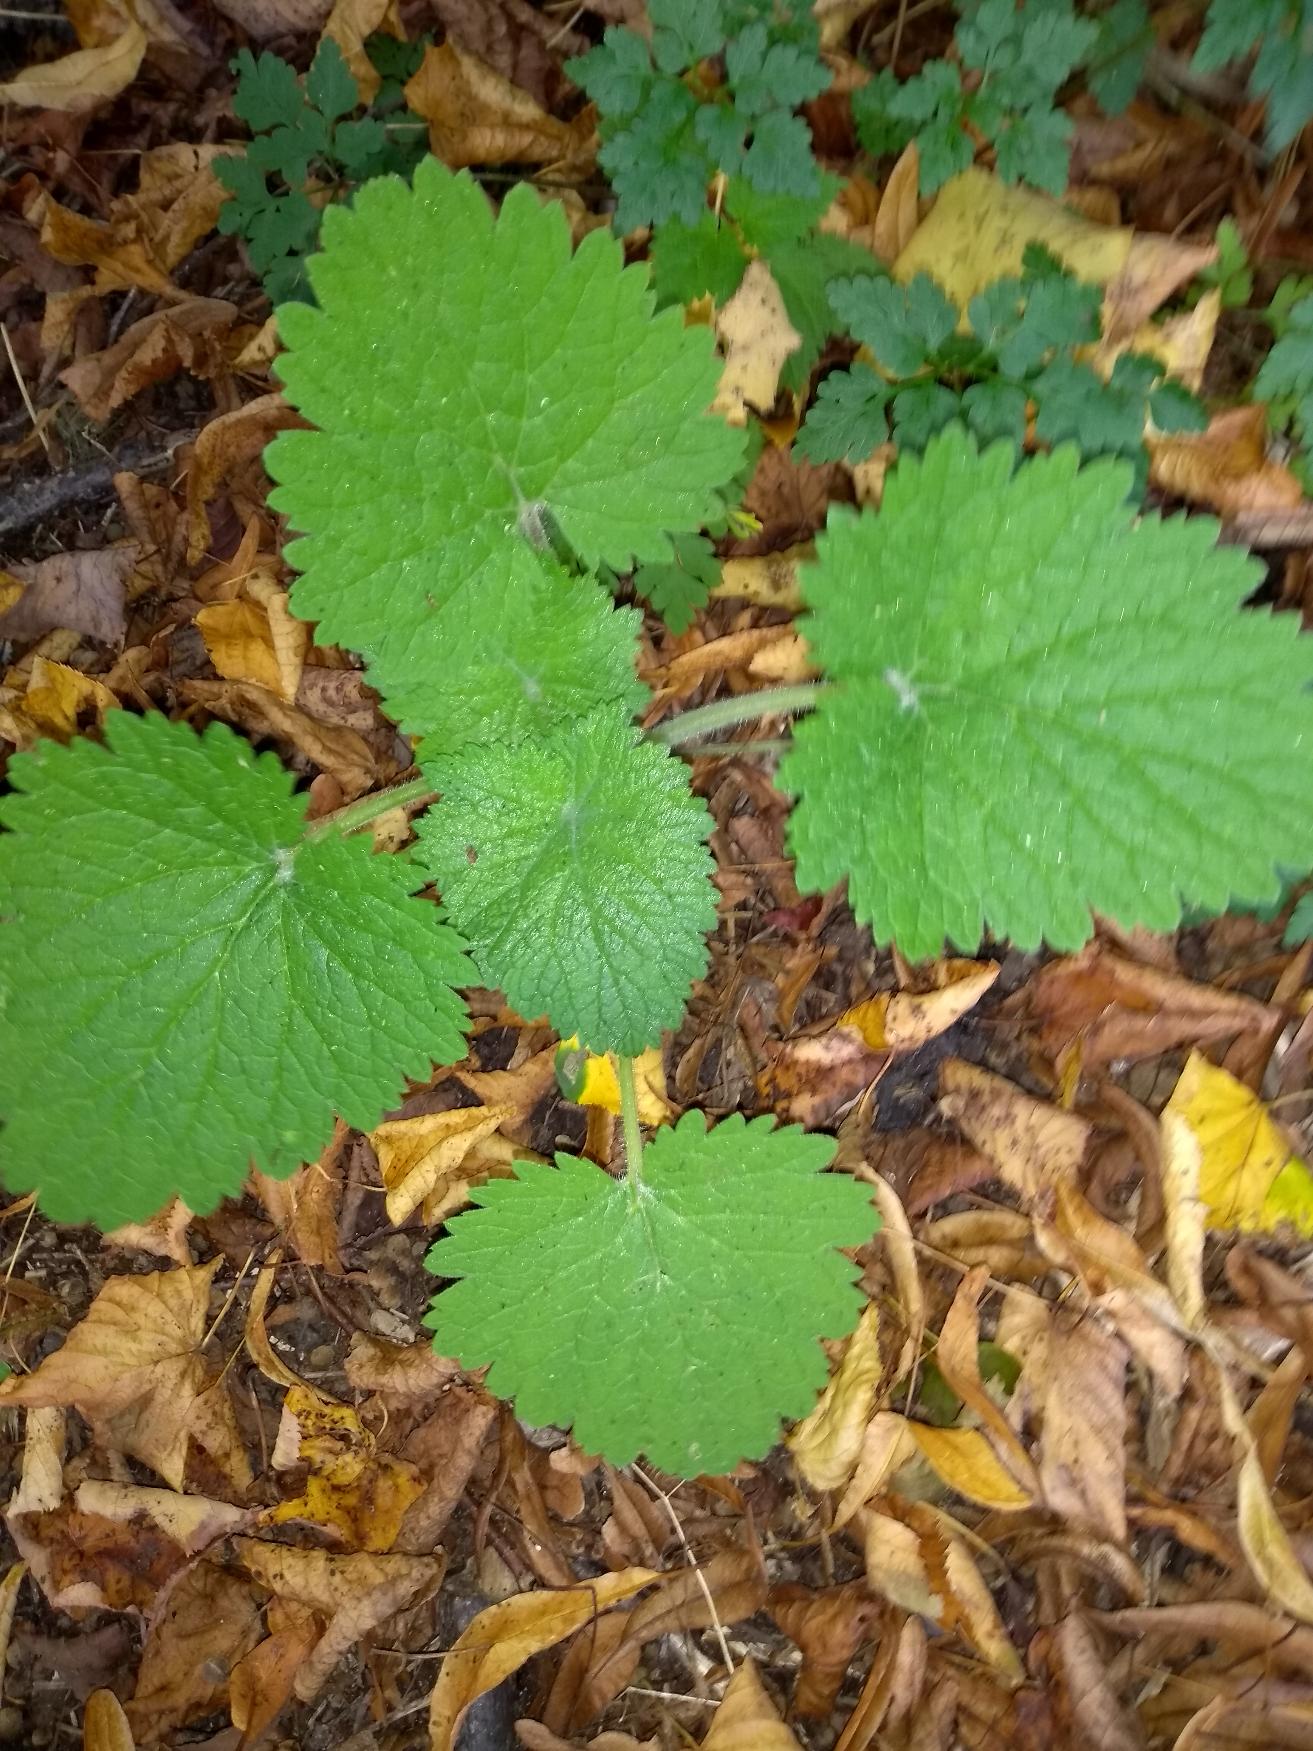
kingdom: Plantae
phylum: Tracheophyta
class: Magnoliopsida
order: Lamiales
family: Scrophulariaceae
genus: Scrophularia
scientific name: Scrophularia vernalis
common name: Vår-brunrod
